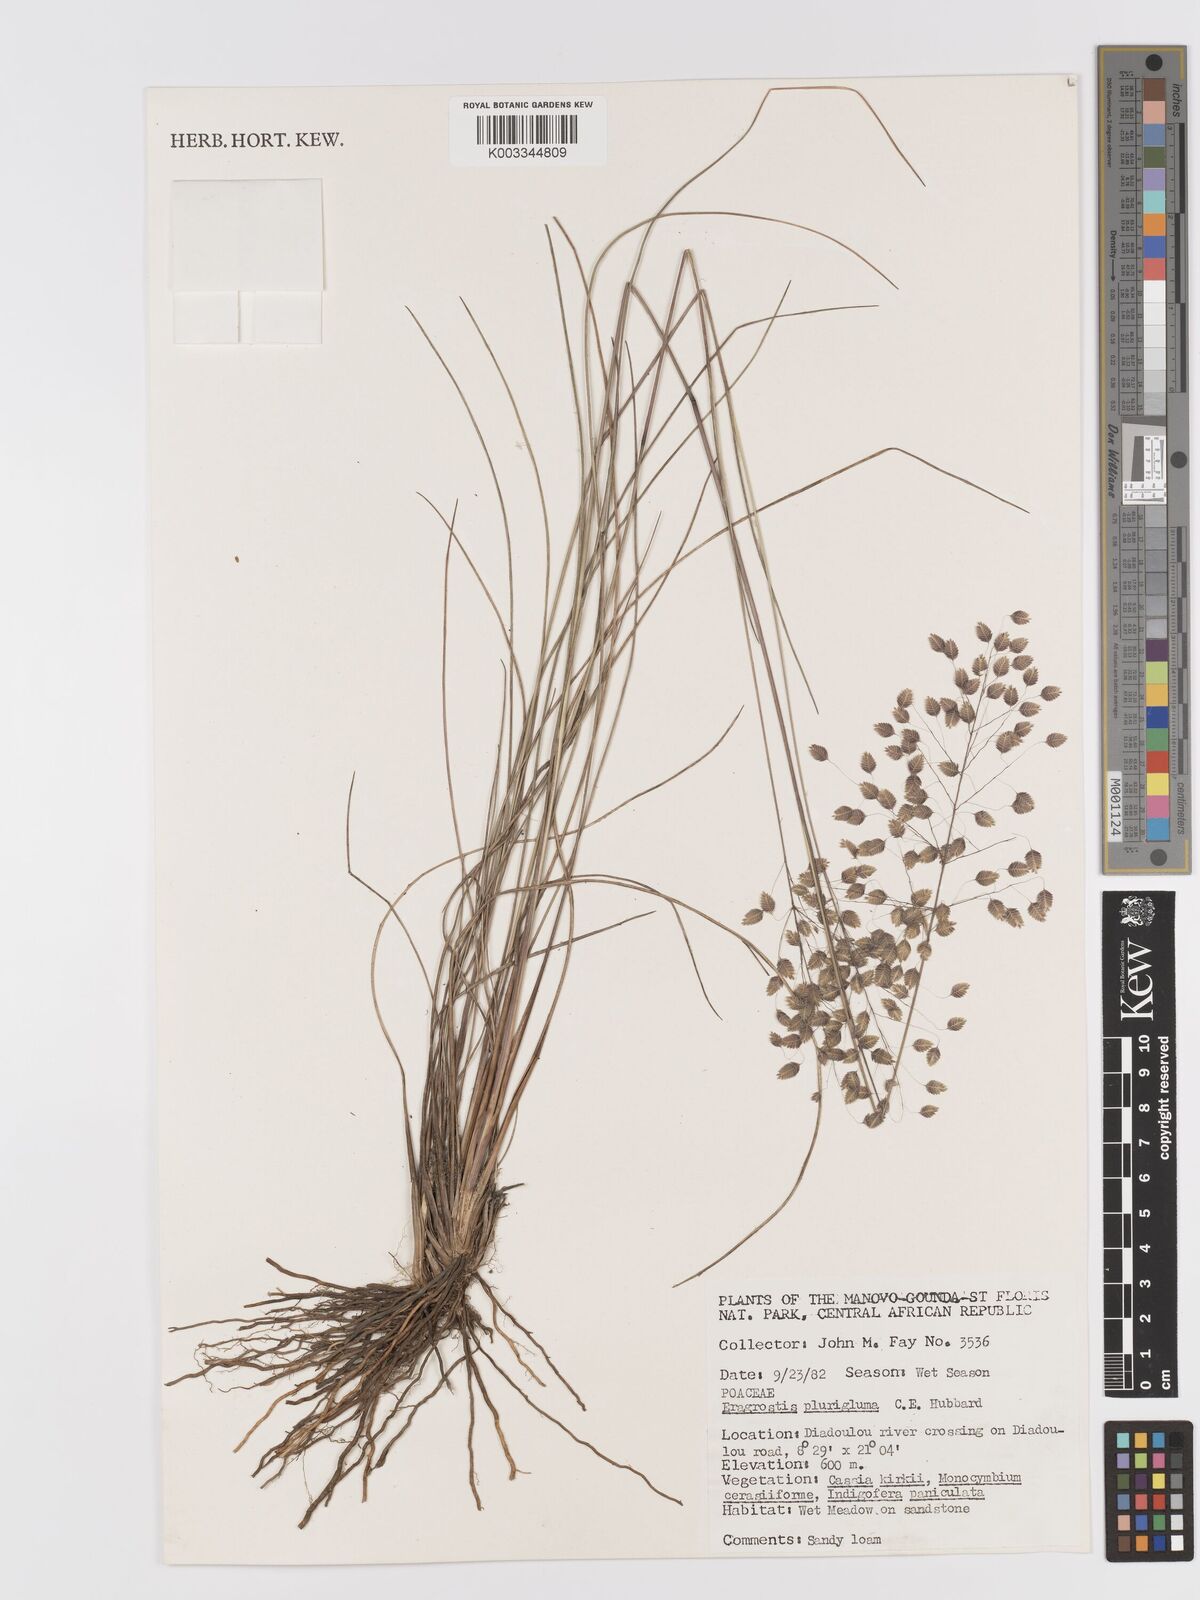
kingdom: Plantae
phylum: Tracheophyta
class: Liliopsida
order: Poales
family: Poaceae
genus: Eragrostis
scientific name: Eragrostis plurigluma
